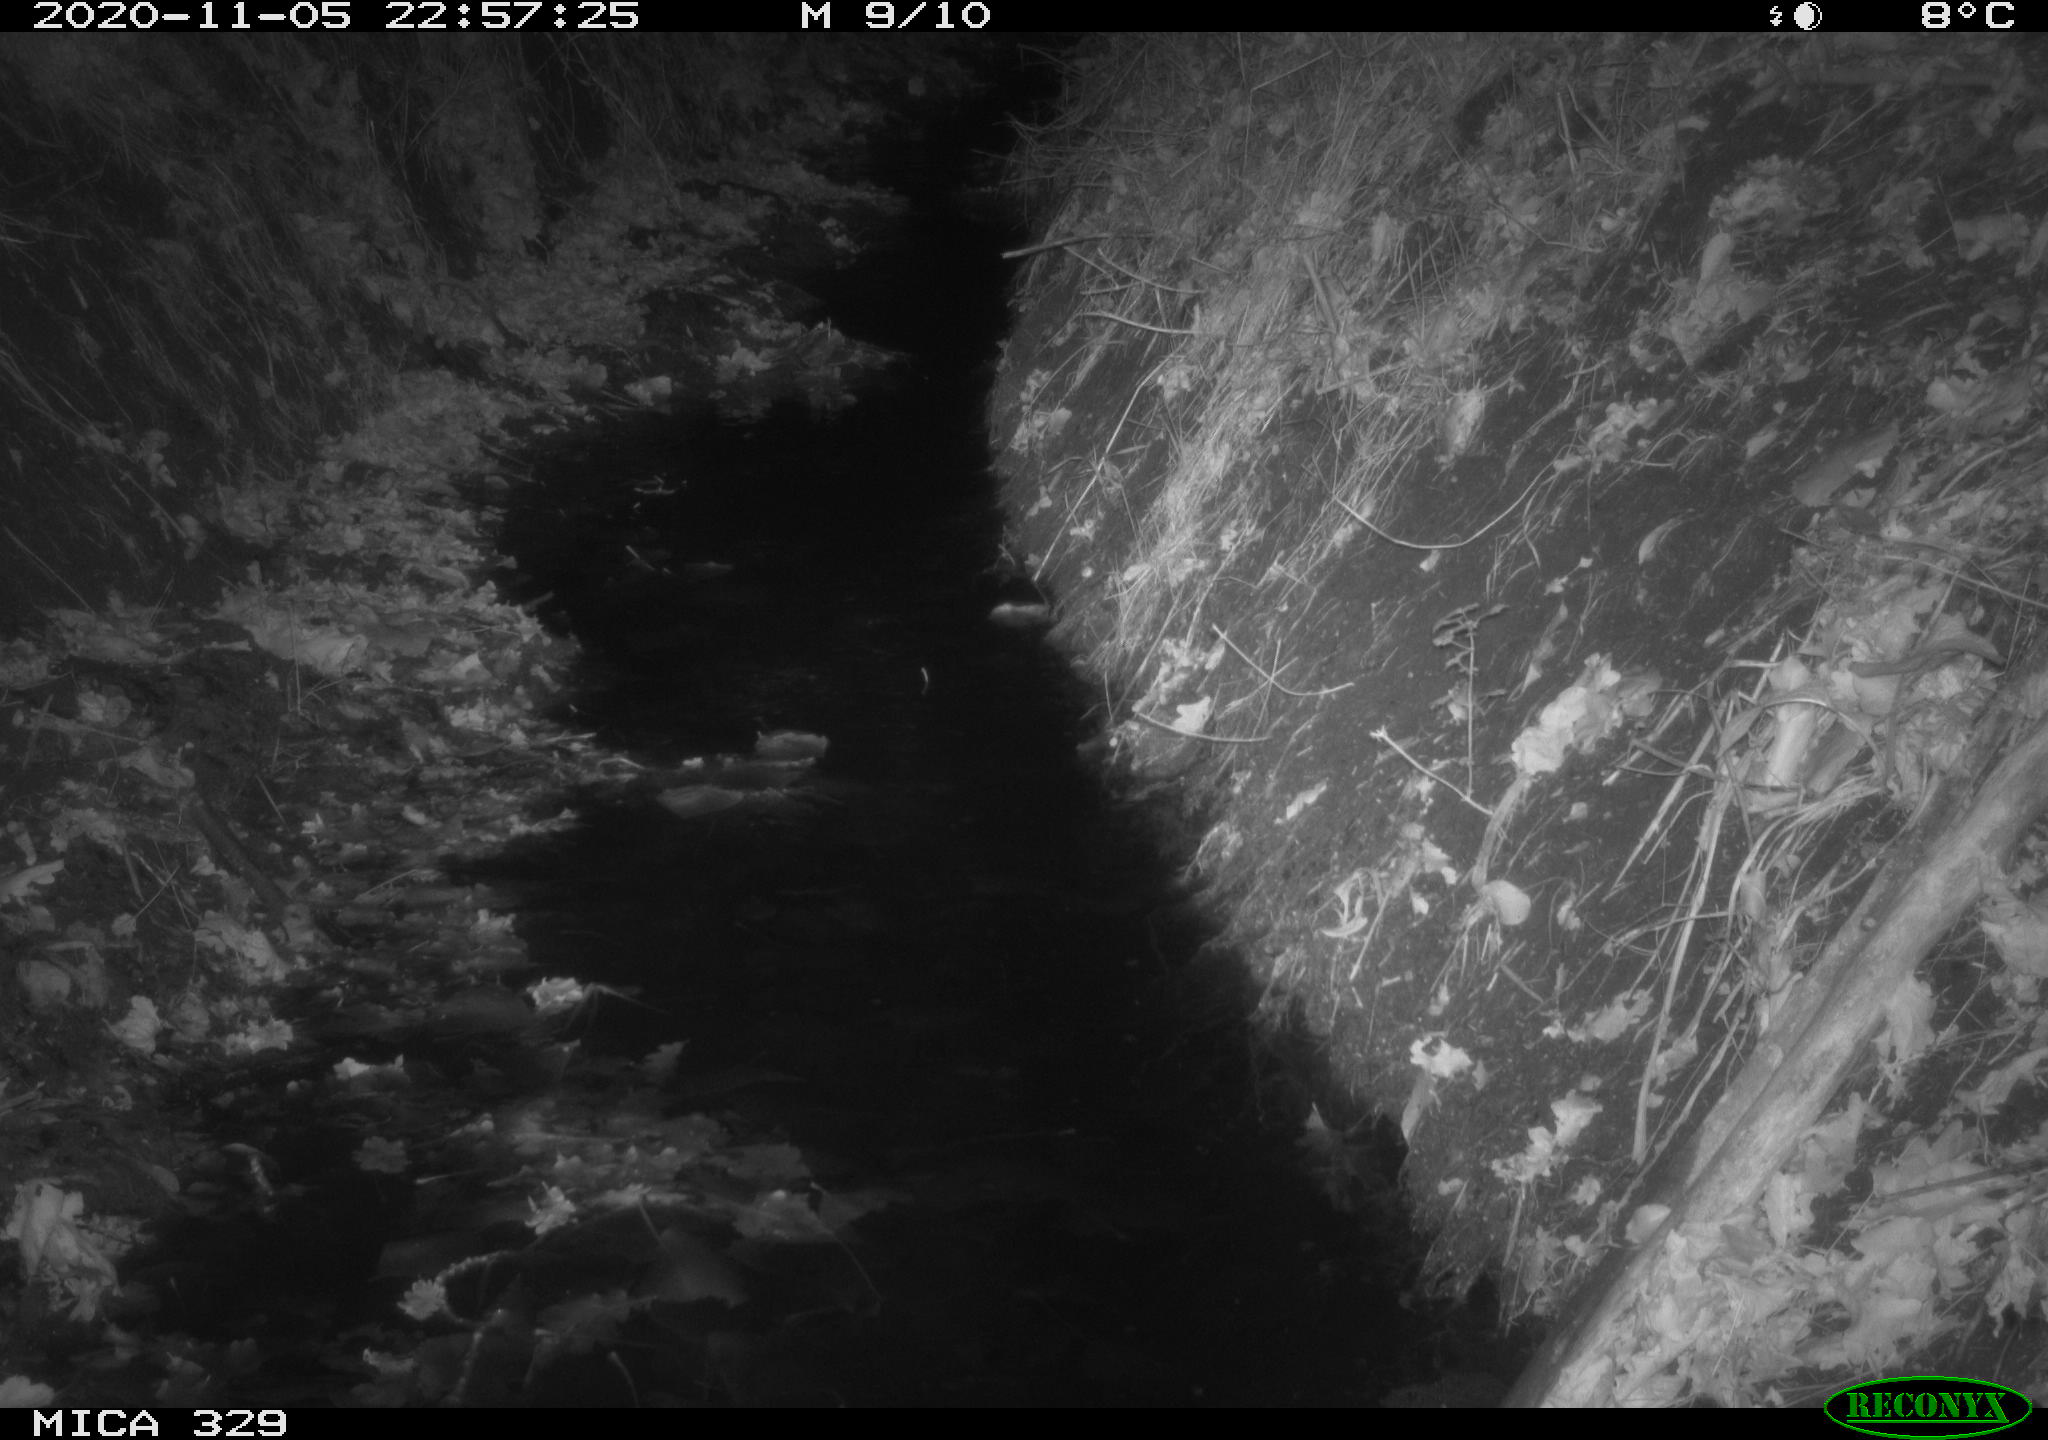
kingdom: Animalia
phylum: Chordata
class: Mammalia
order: Rodentia
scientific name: Rodentia
